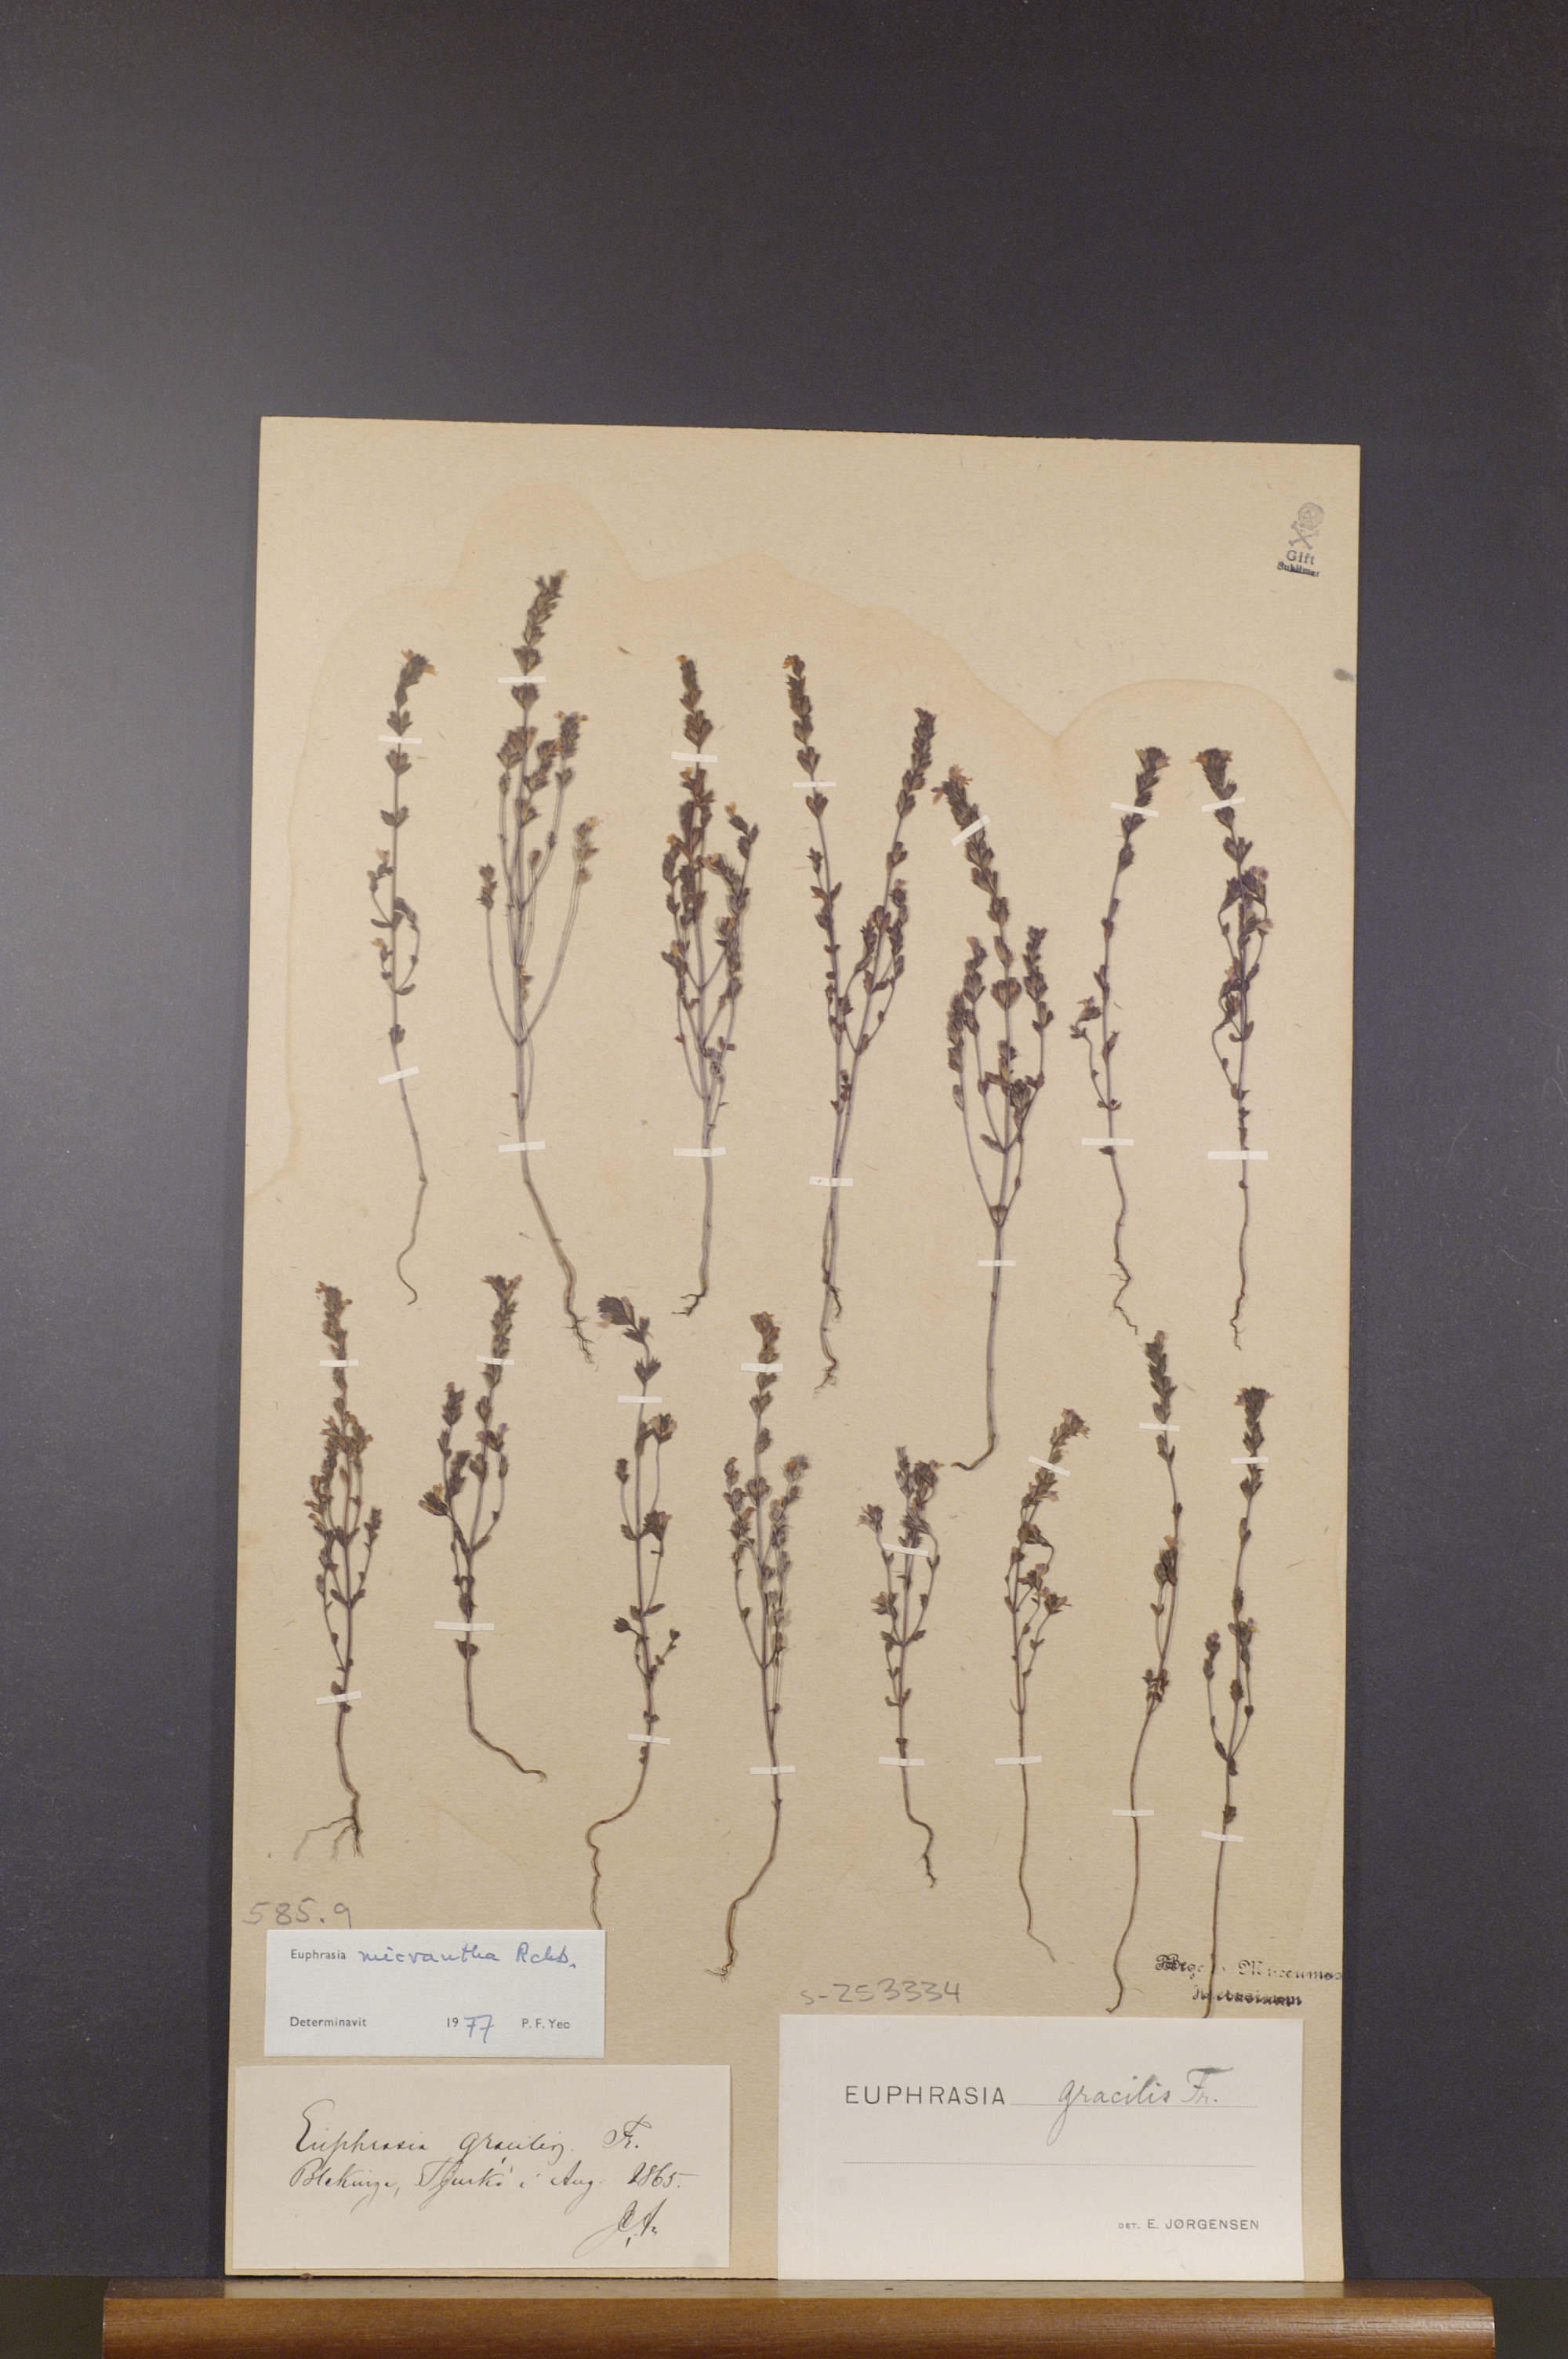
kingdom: Plantae
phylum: Tracheophyta
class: Magnoliopsida
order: Lamiales
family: Orobanchaceae
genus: Euphrasia
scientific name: Euphrasia micrantha
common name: Northern eyebright
